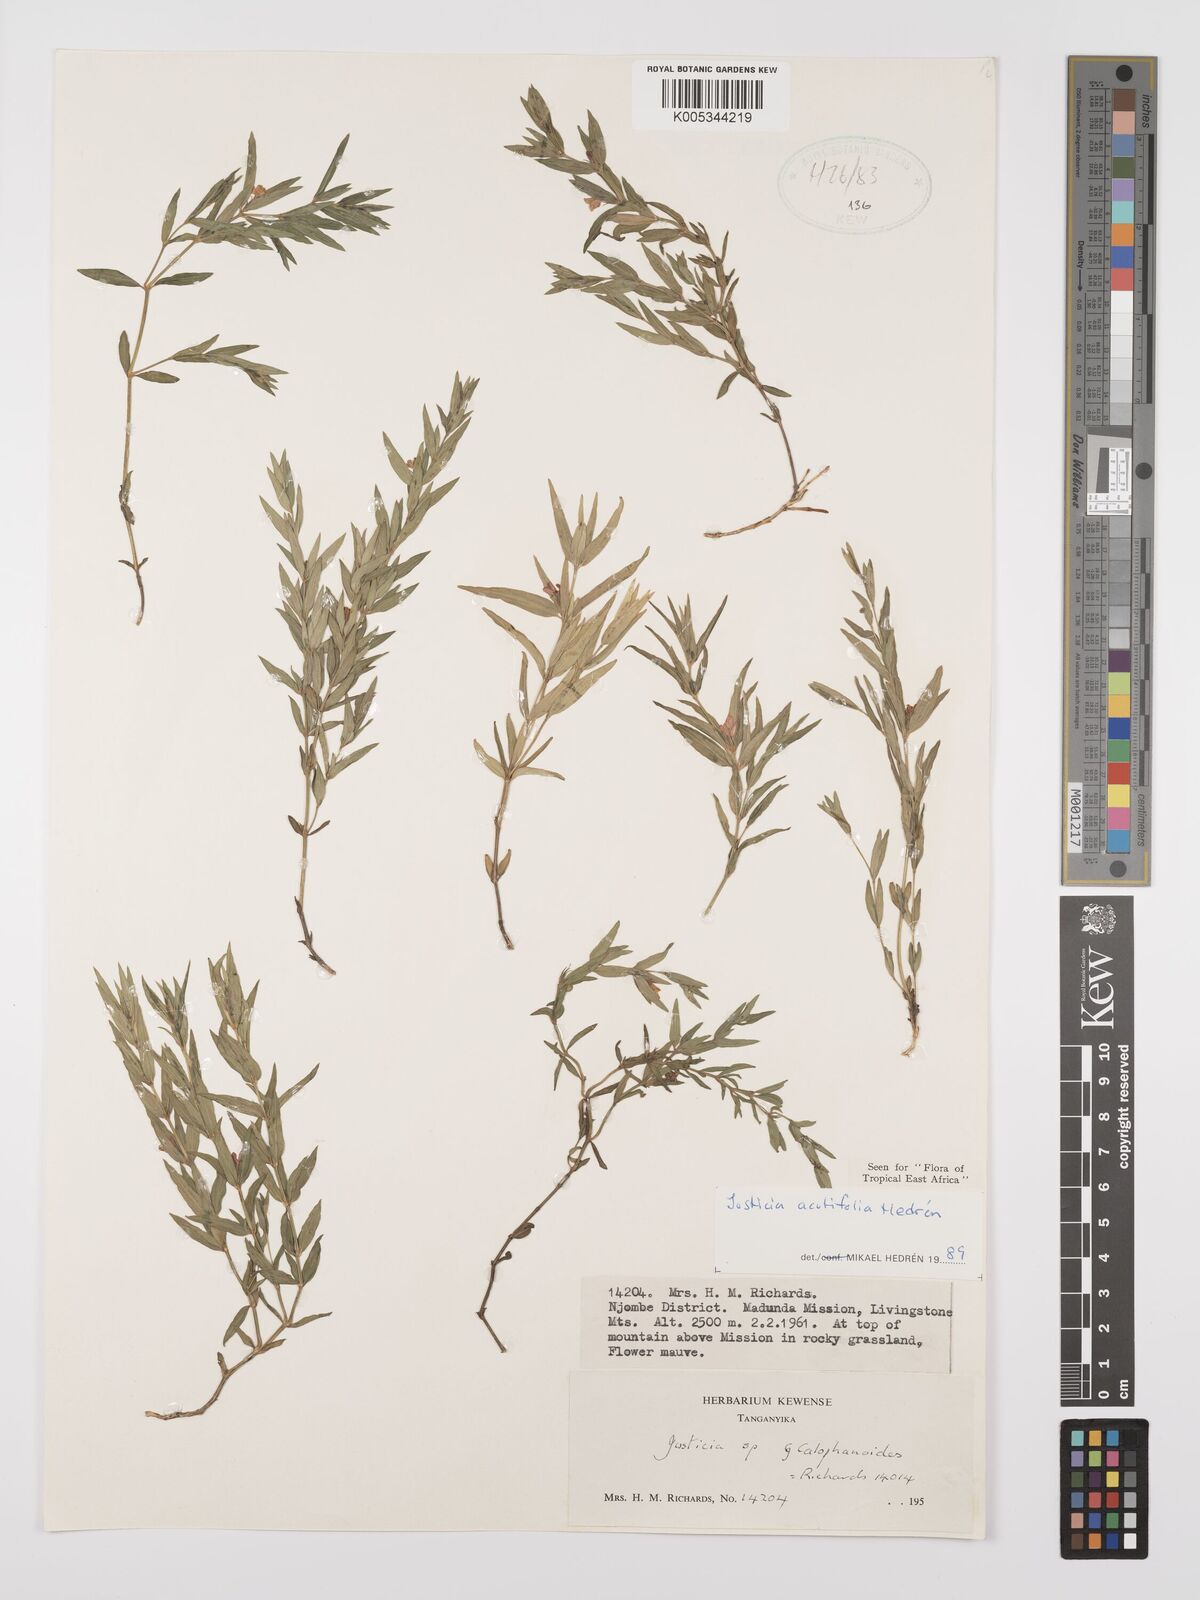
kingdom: Plantae
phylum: Tracheophyta
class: Magnoliopsida
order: Lamiales
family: Acanthaceae
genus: Justicia
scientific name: Justicia acutifolia
